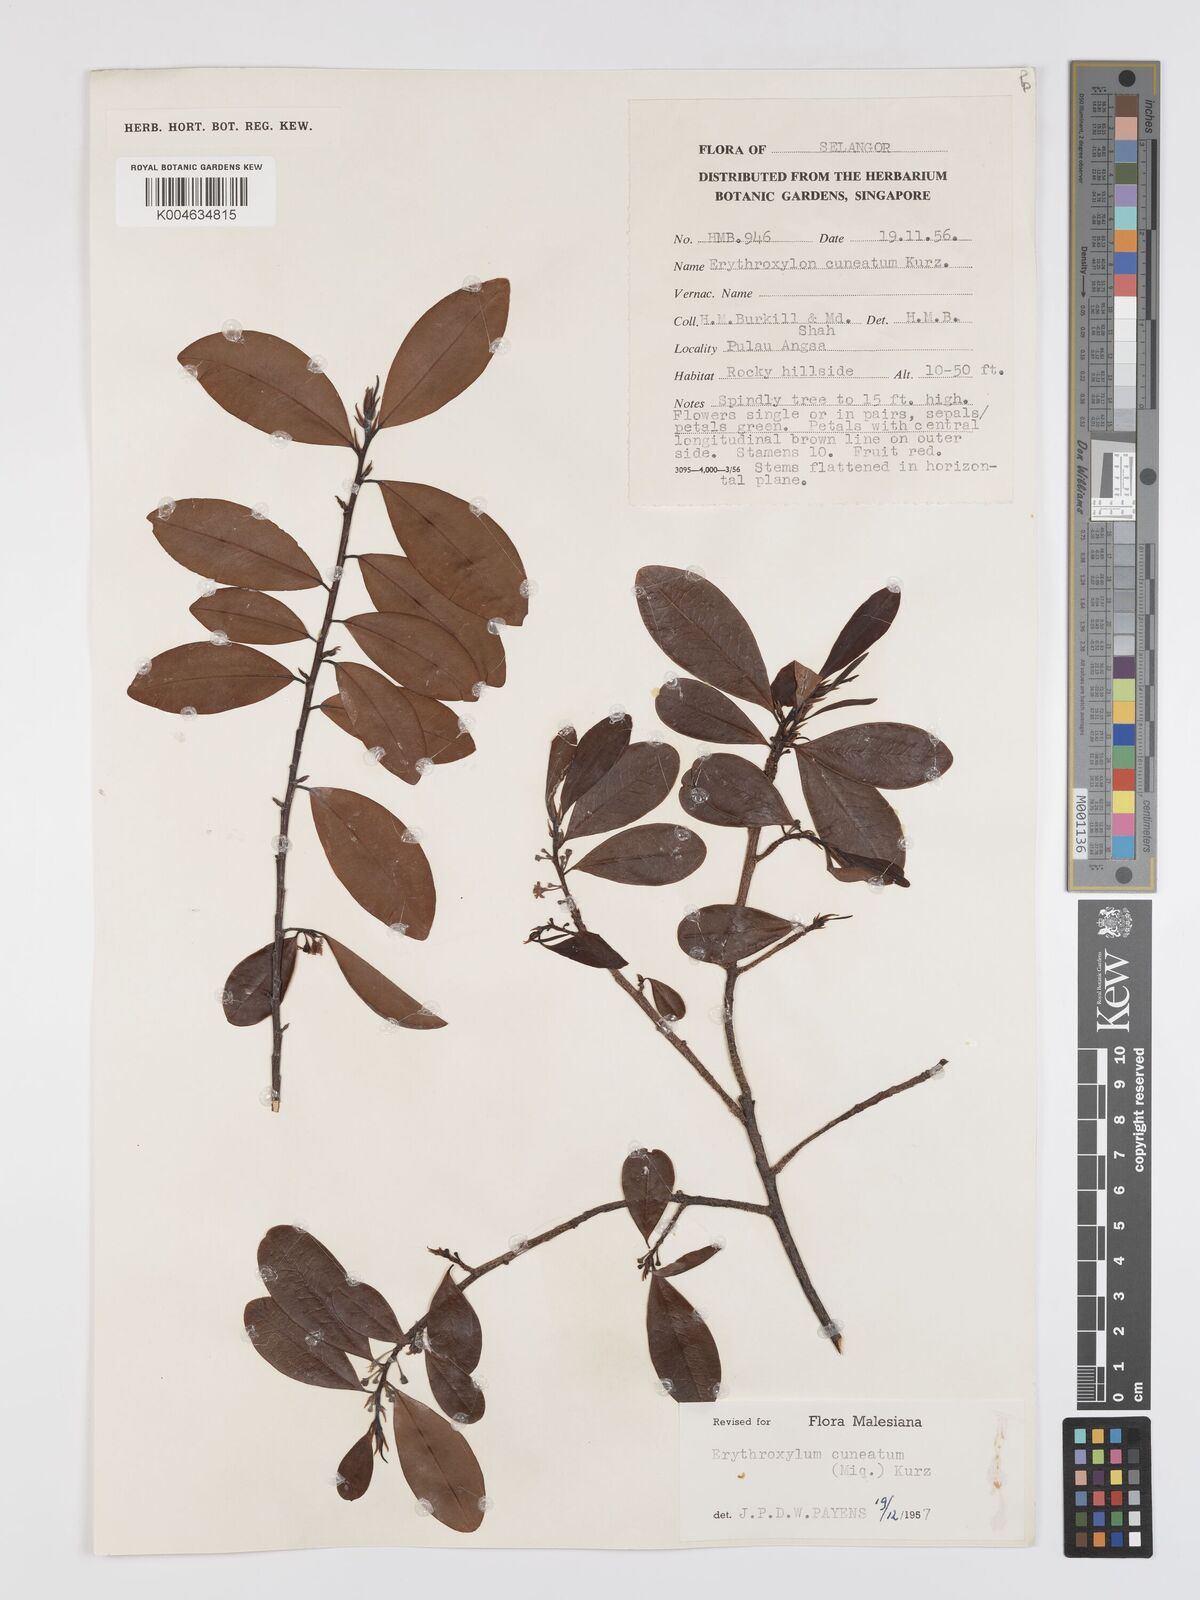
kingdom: Plantae
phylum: Tracheophyta
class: Magnoliopsida
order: Malpighiales
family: Erythroxylaceae
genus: Erythroxylum
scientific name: Erythroxylum cuneatum
